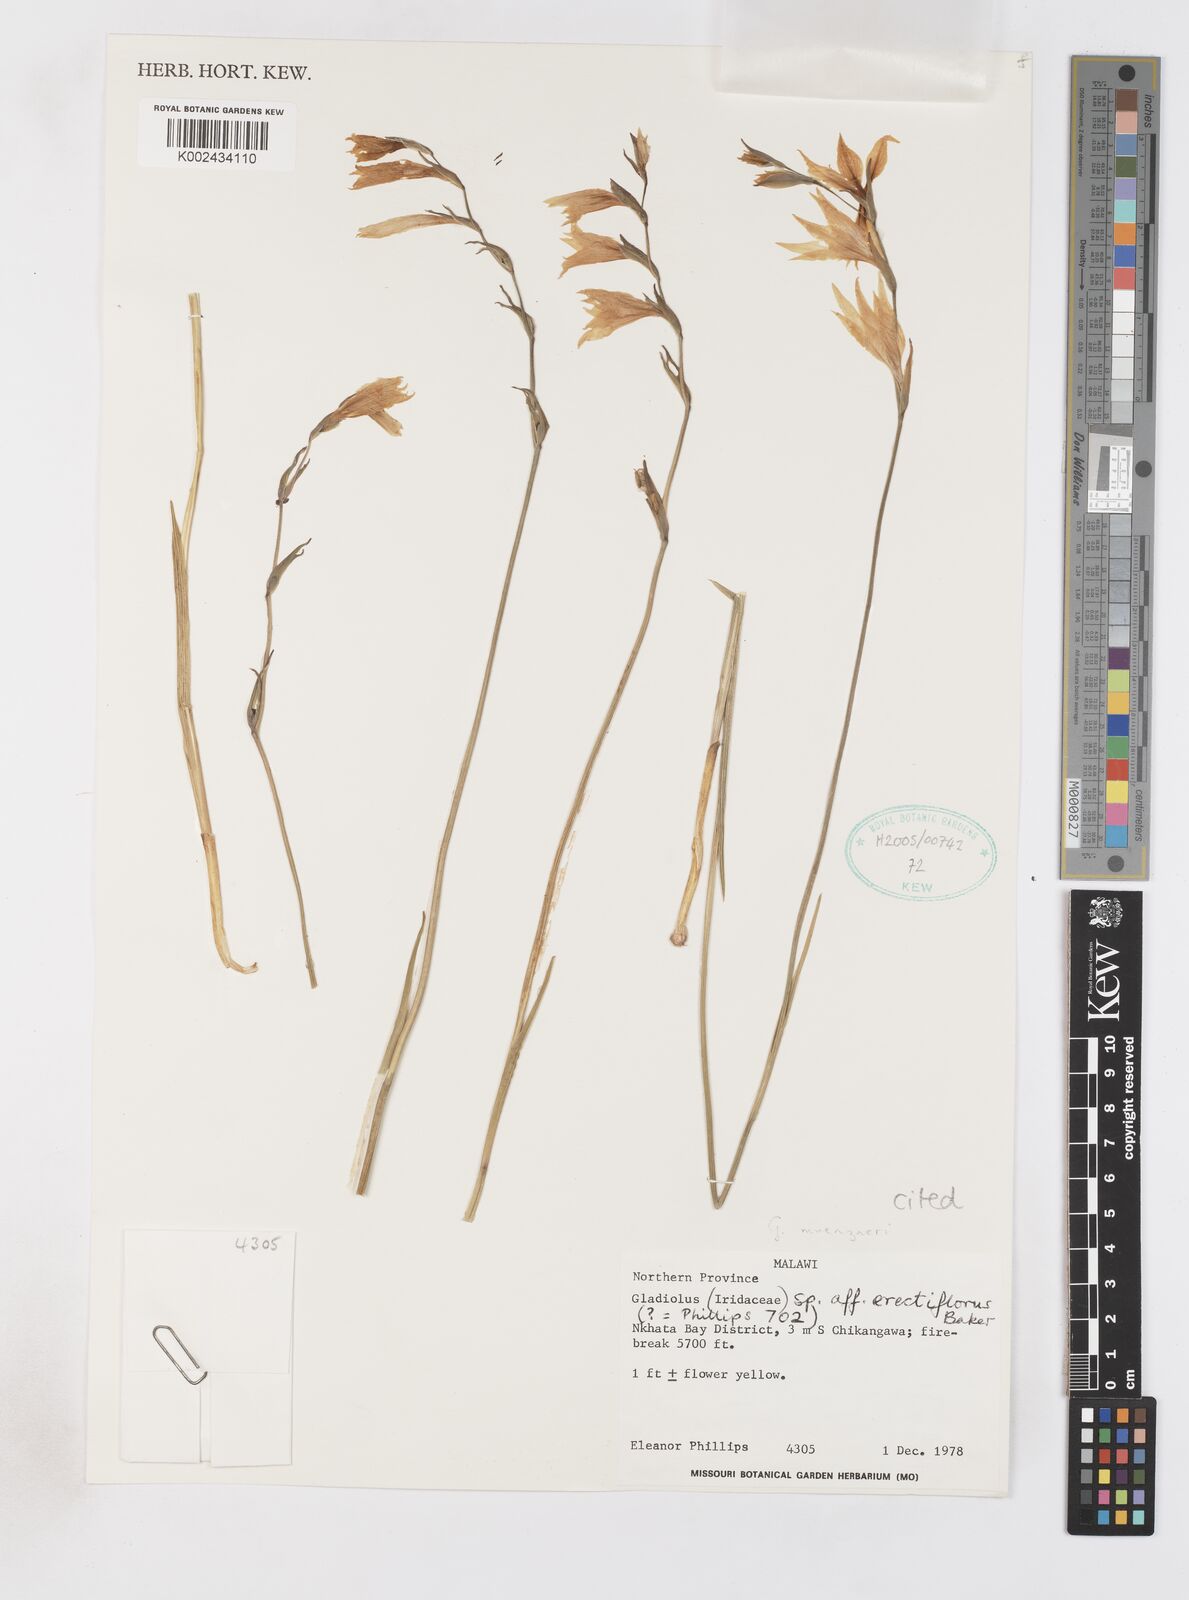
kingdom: Plantae
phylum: Tracheophyta
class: Liliopsida
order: Asparagales
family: Iridaceae
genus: Gladiolus
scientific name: Gladiolus muenzneri
